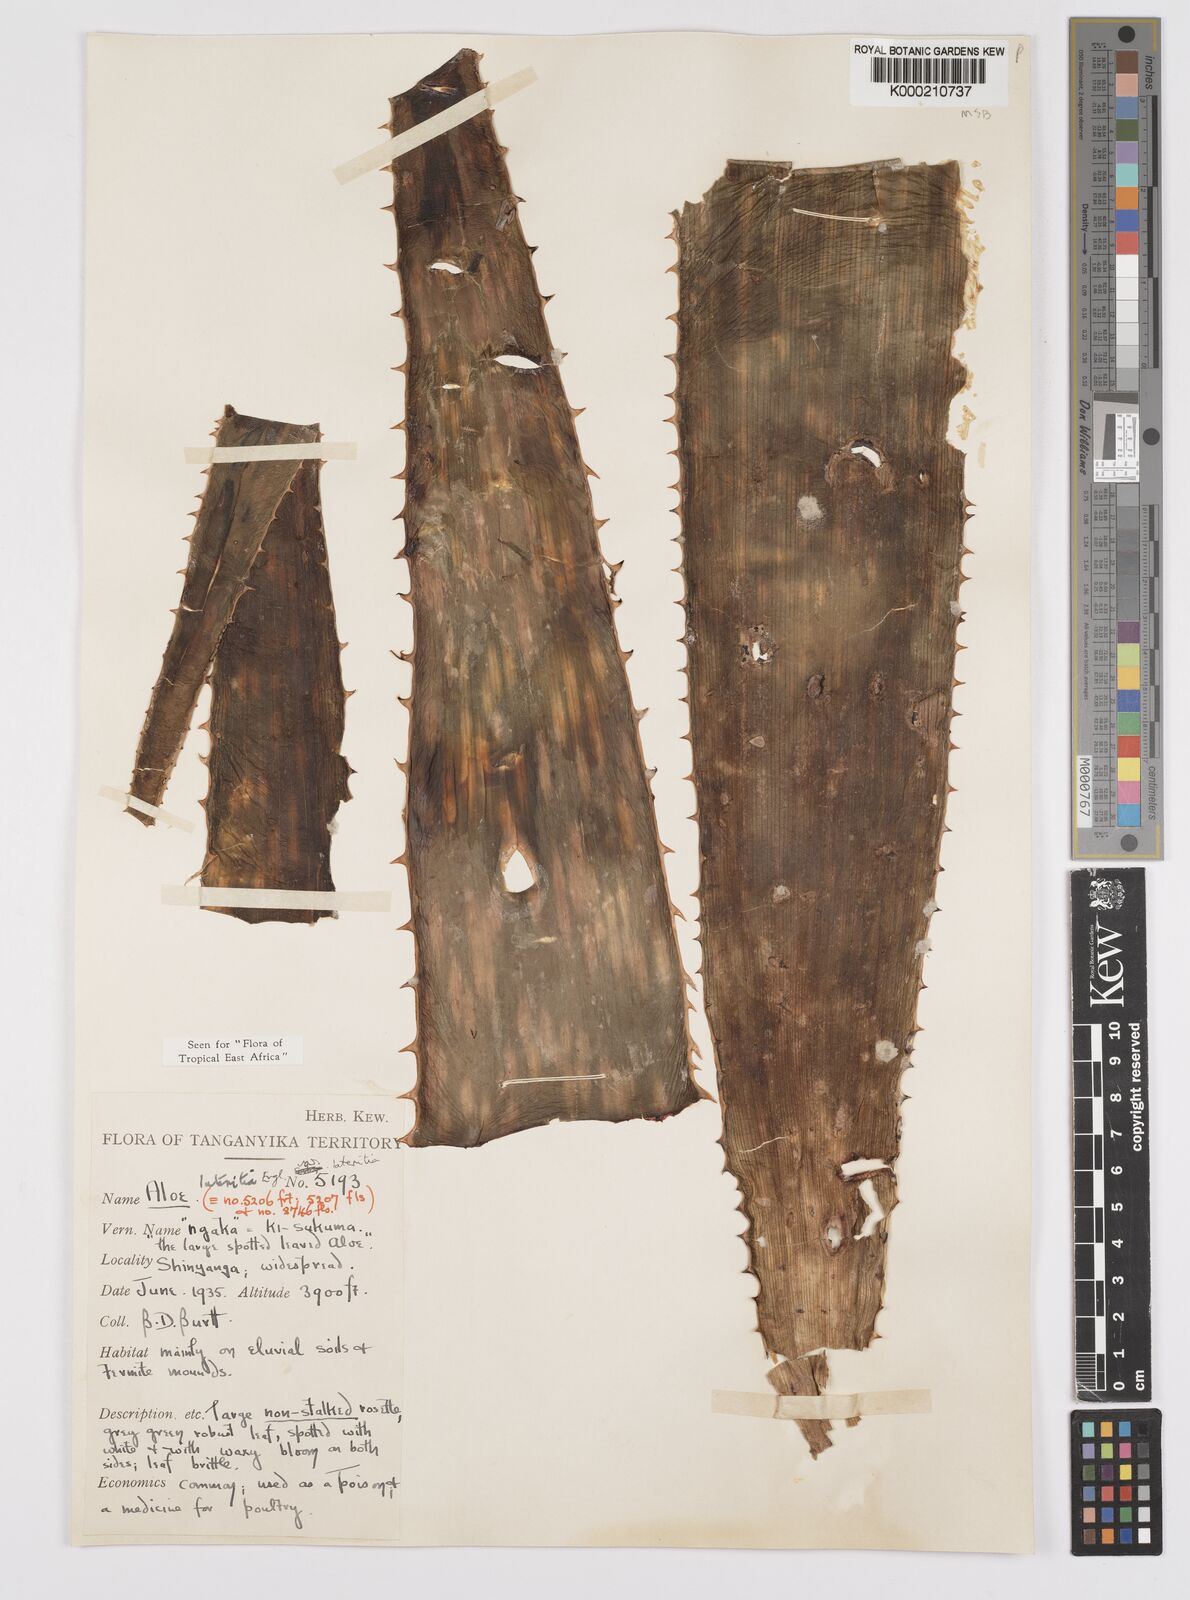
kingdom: Plantae
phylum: Tracheophyta
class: Liliopsida
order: Asparagales
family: Asphodelaceae
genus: Aloe
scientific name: Aloe lateritia
